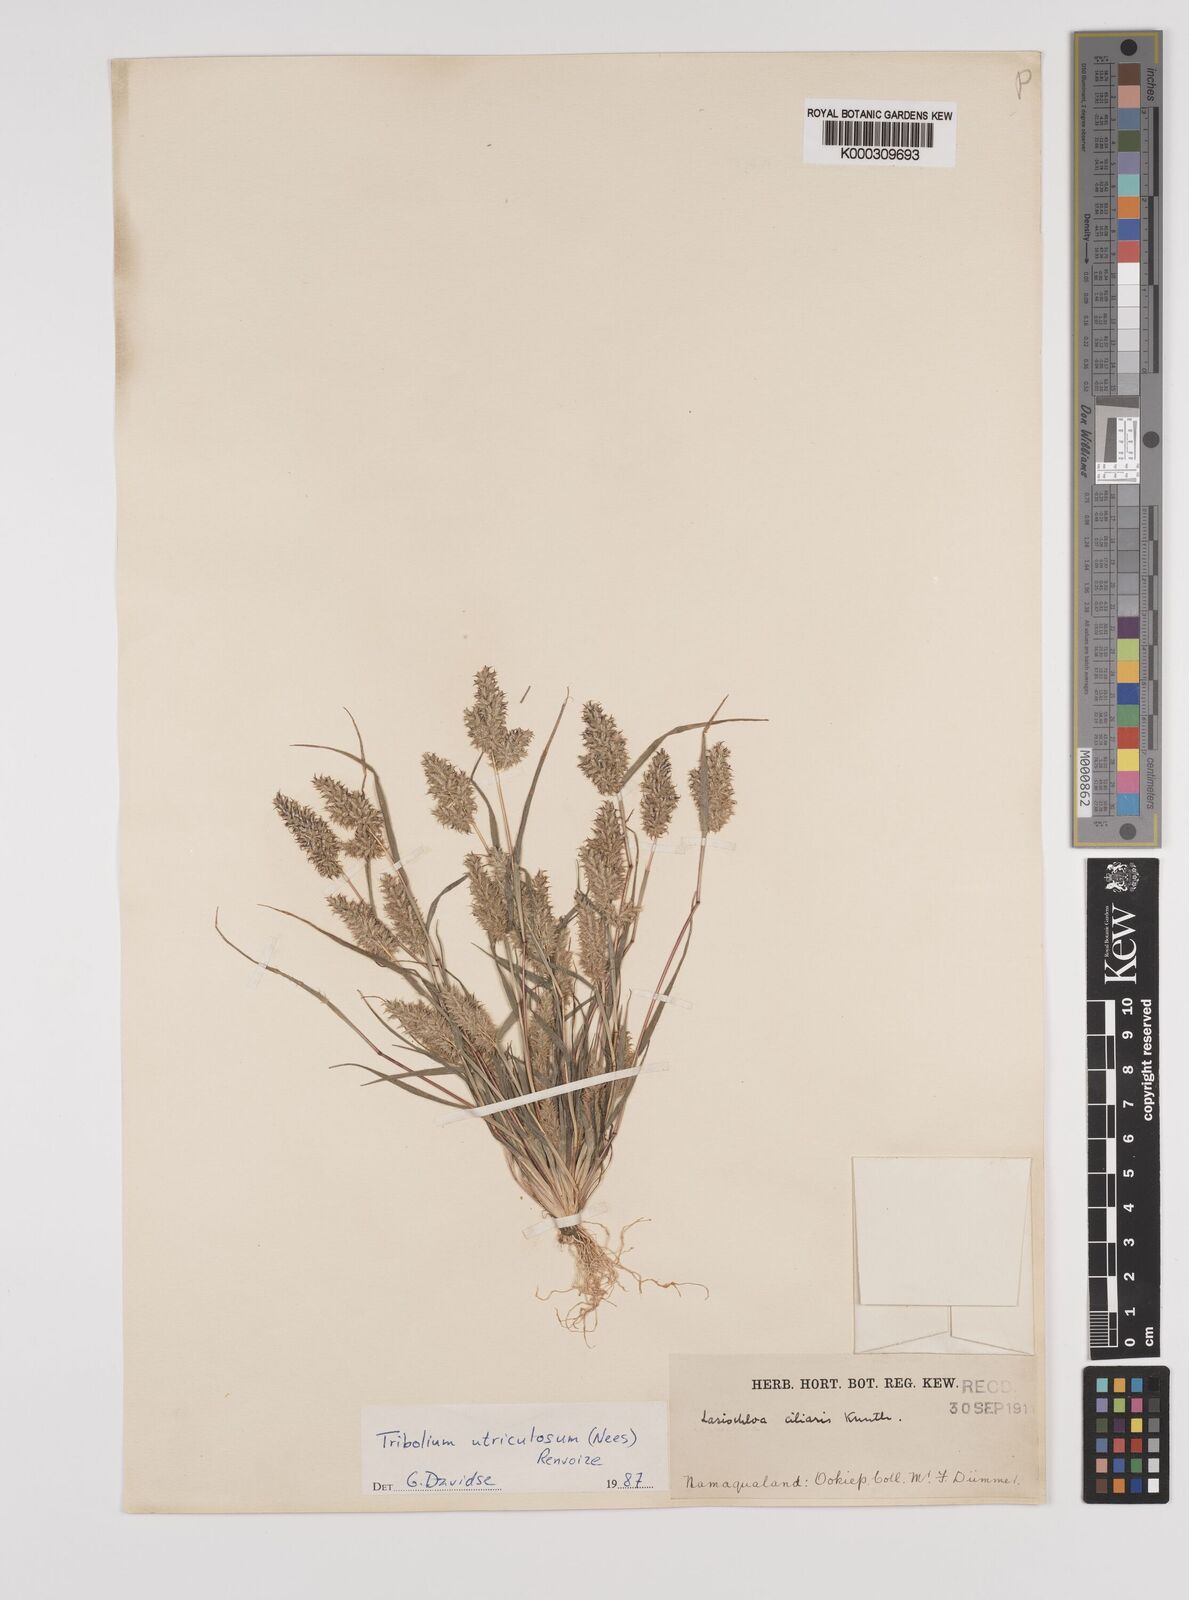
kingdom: Plantae
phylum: Tracheophyta
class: Liliopsida
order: Poales
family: Poaceae
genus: Tribolium
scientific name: Tribolium utriculosum
